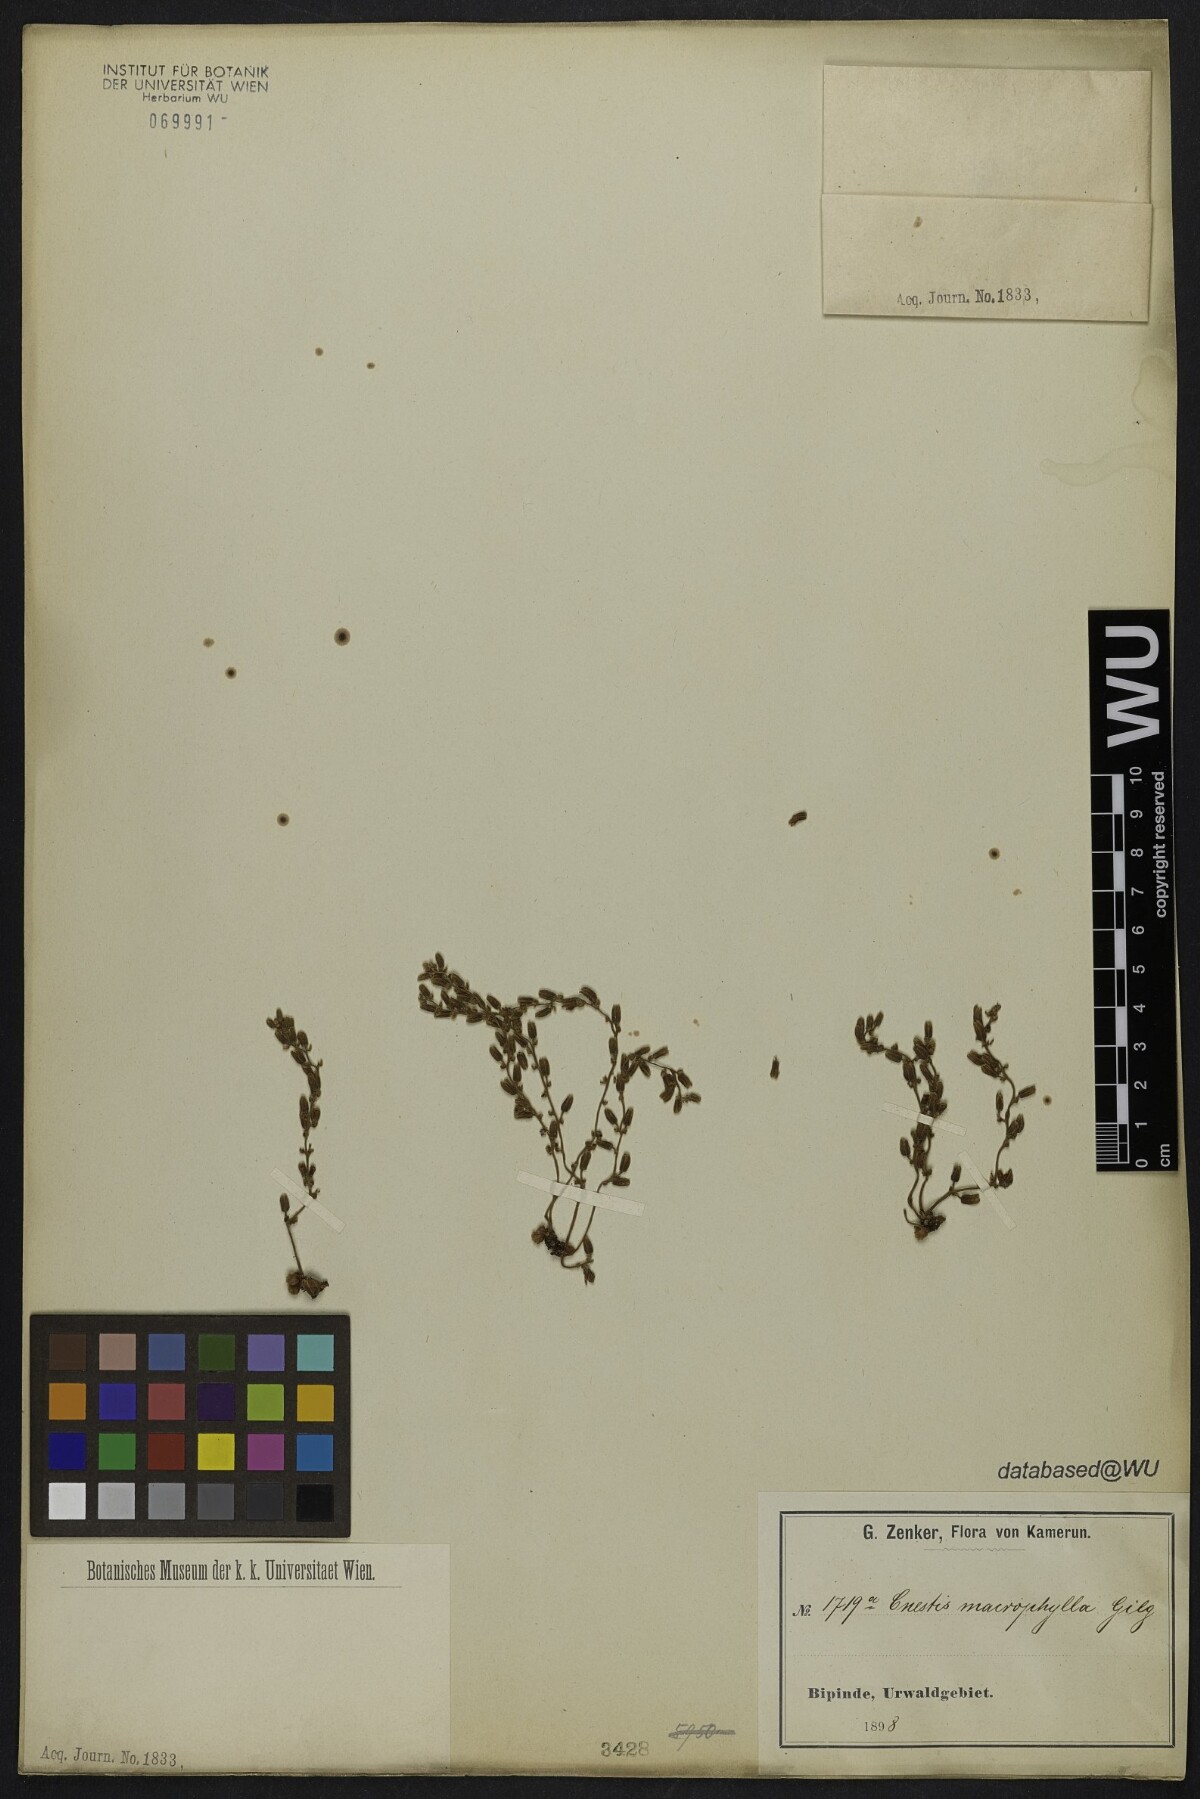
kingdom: Plantae
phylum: Tracheophyta
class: Magnoliopsida
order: Oxalidales
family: Connaraceae
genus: Cnestis
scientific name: Cnestis macrophylla
